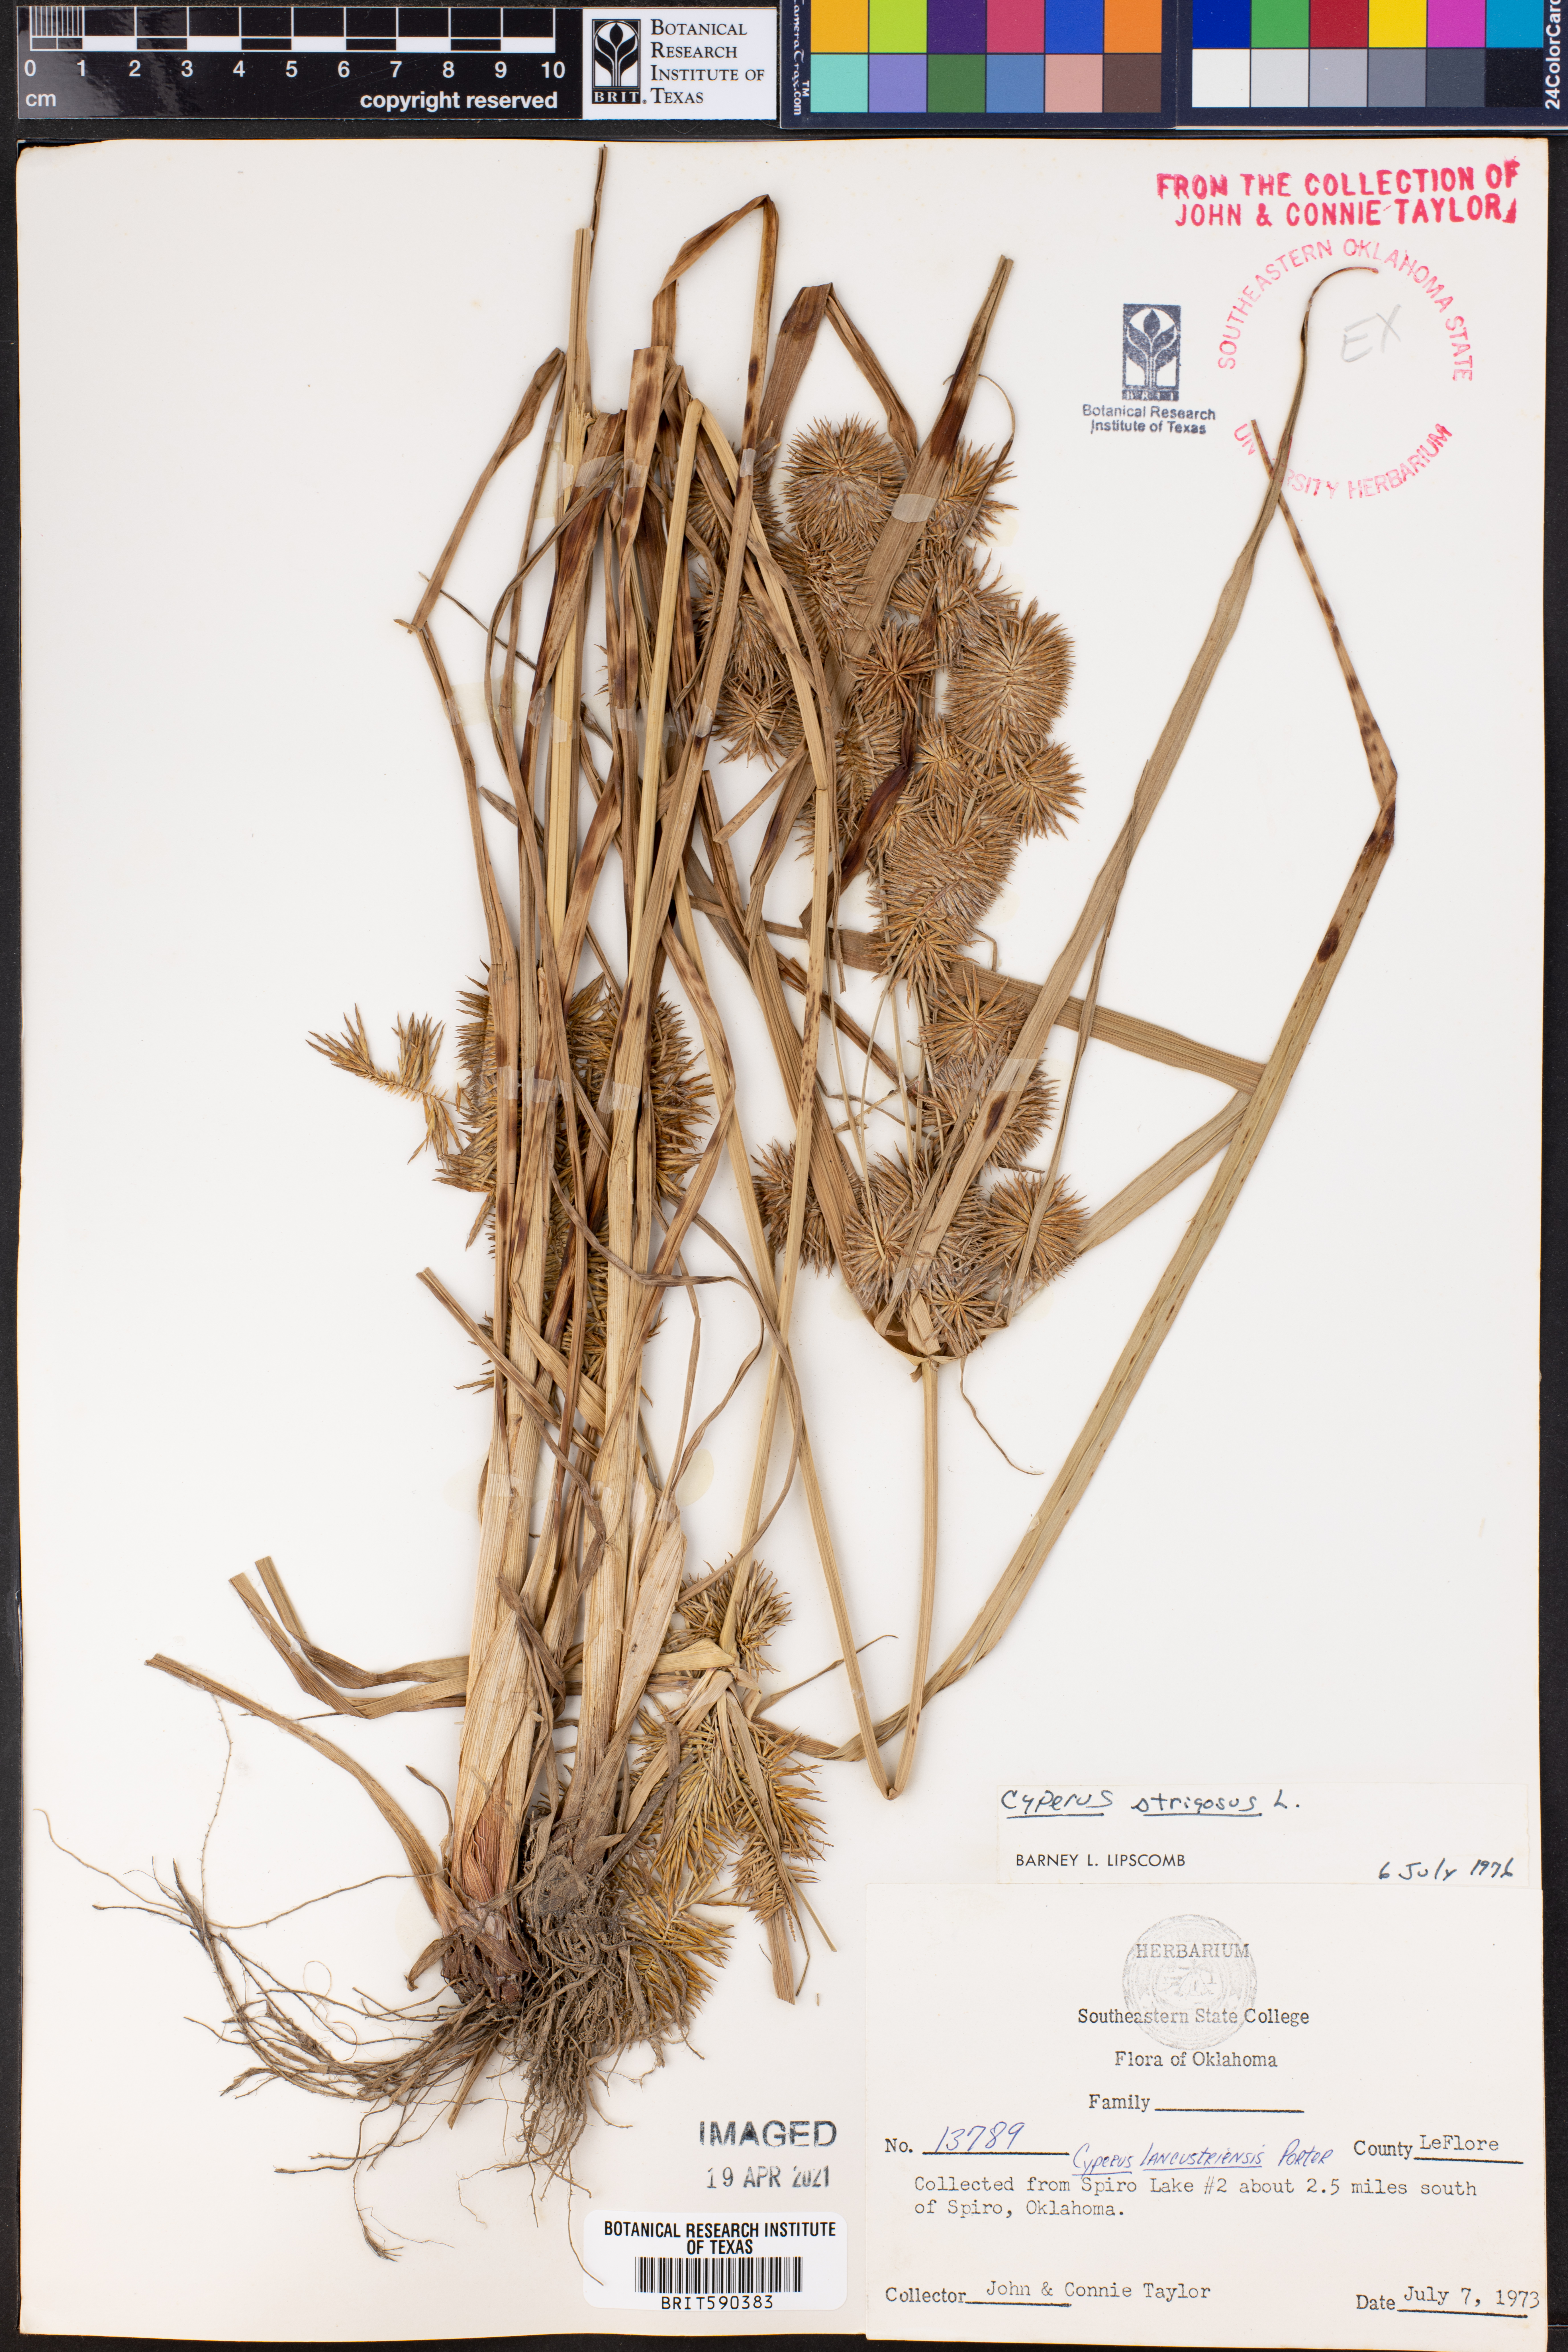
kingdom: Plantae
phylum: Tracheophyta
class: Liliopsida
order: Poales
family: Cyperaceae
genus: Cyperus
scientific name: Cyperus strigosus
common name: False nutsedge
